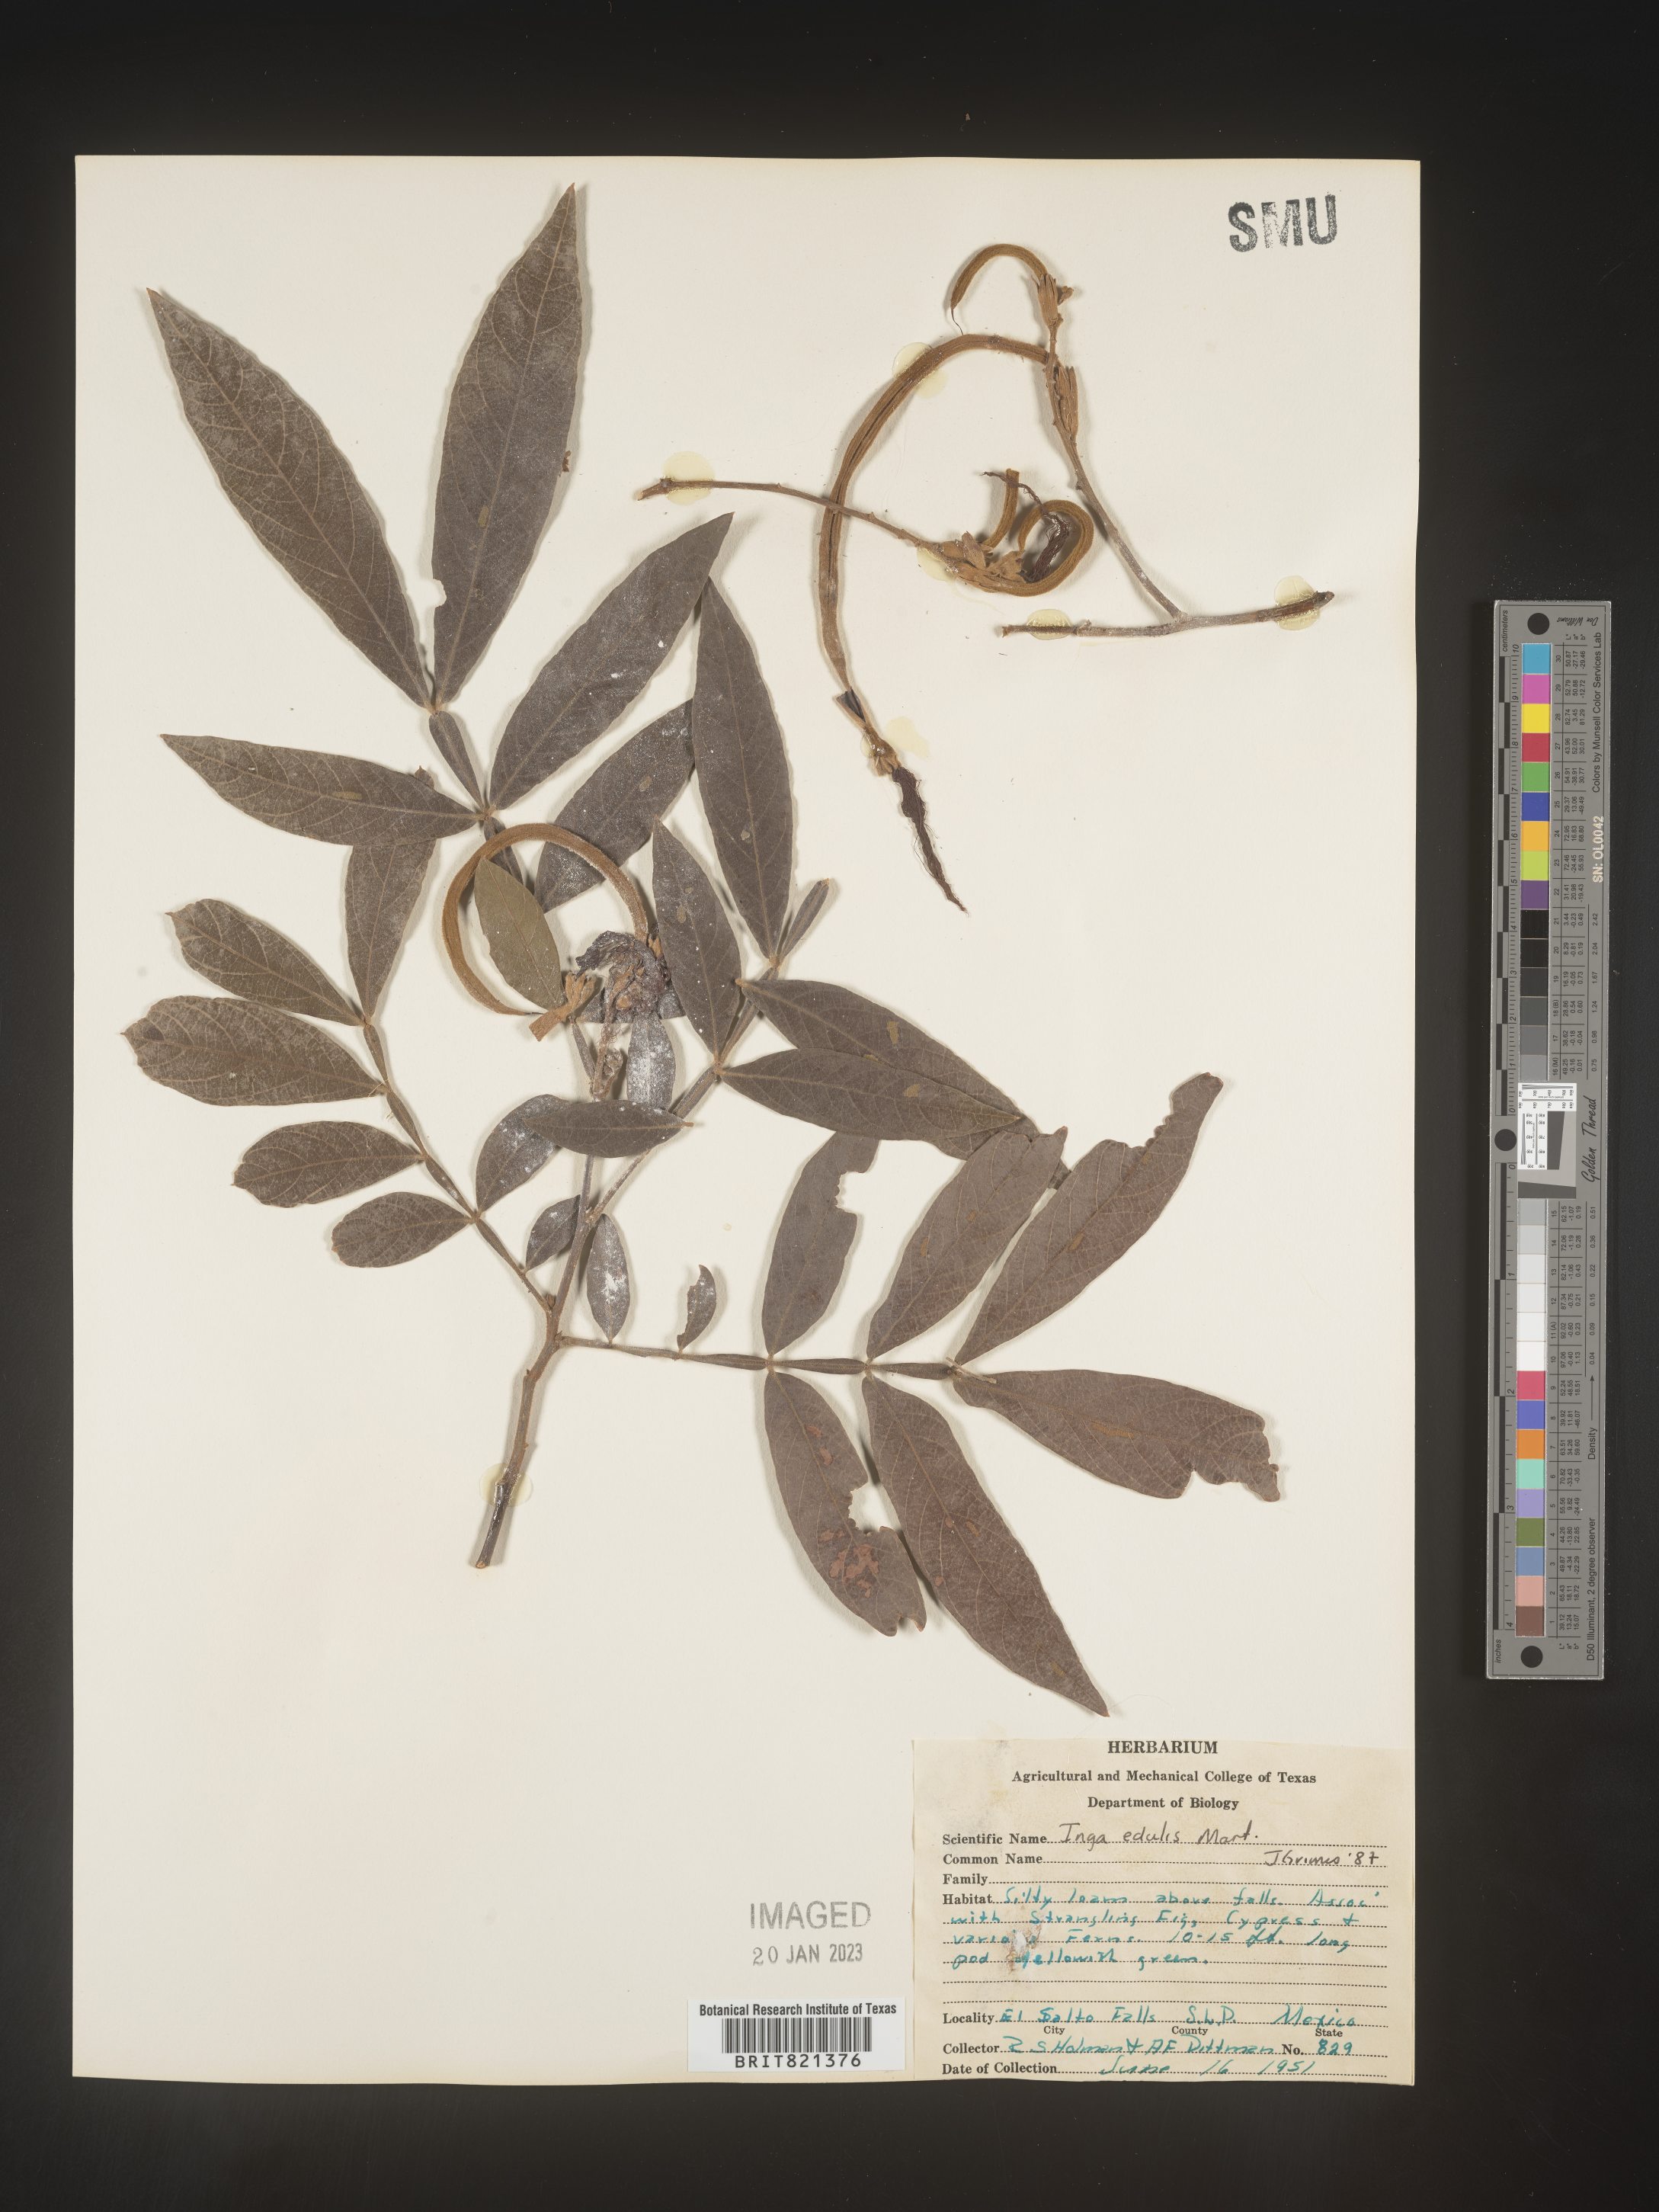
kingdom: Plantae
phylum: Tracheophyta
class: Magnoliopsida
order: Fabales
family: Fabaceae
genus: Inga
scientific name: Inga
